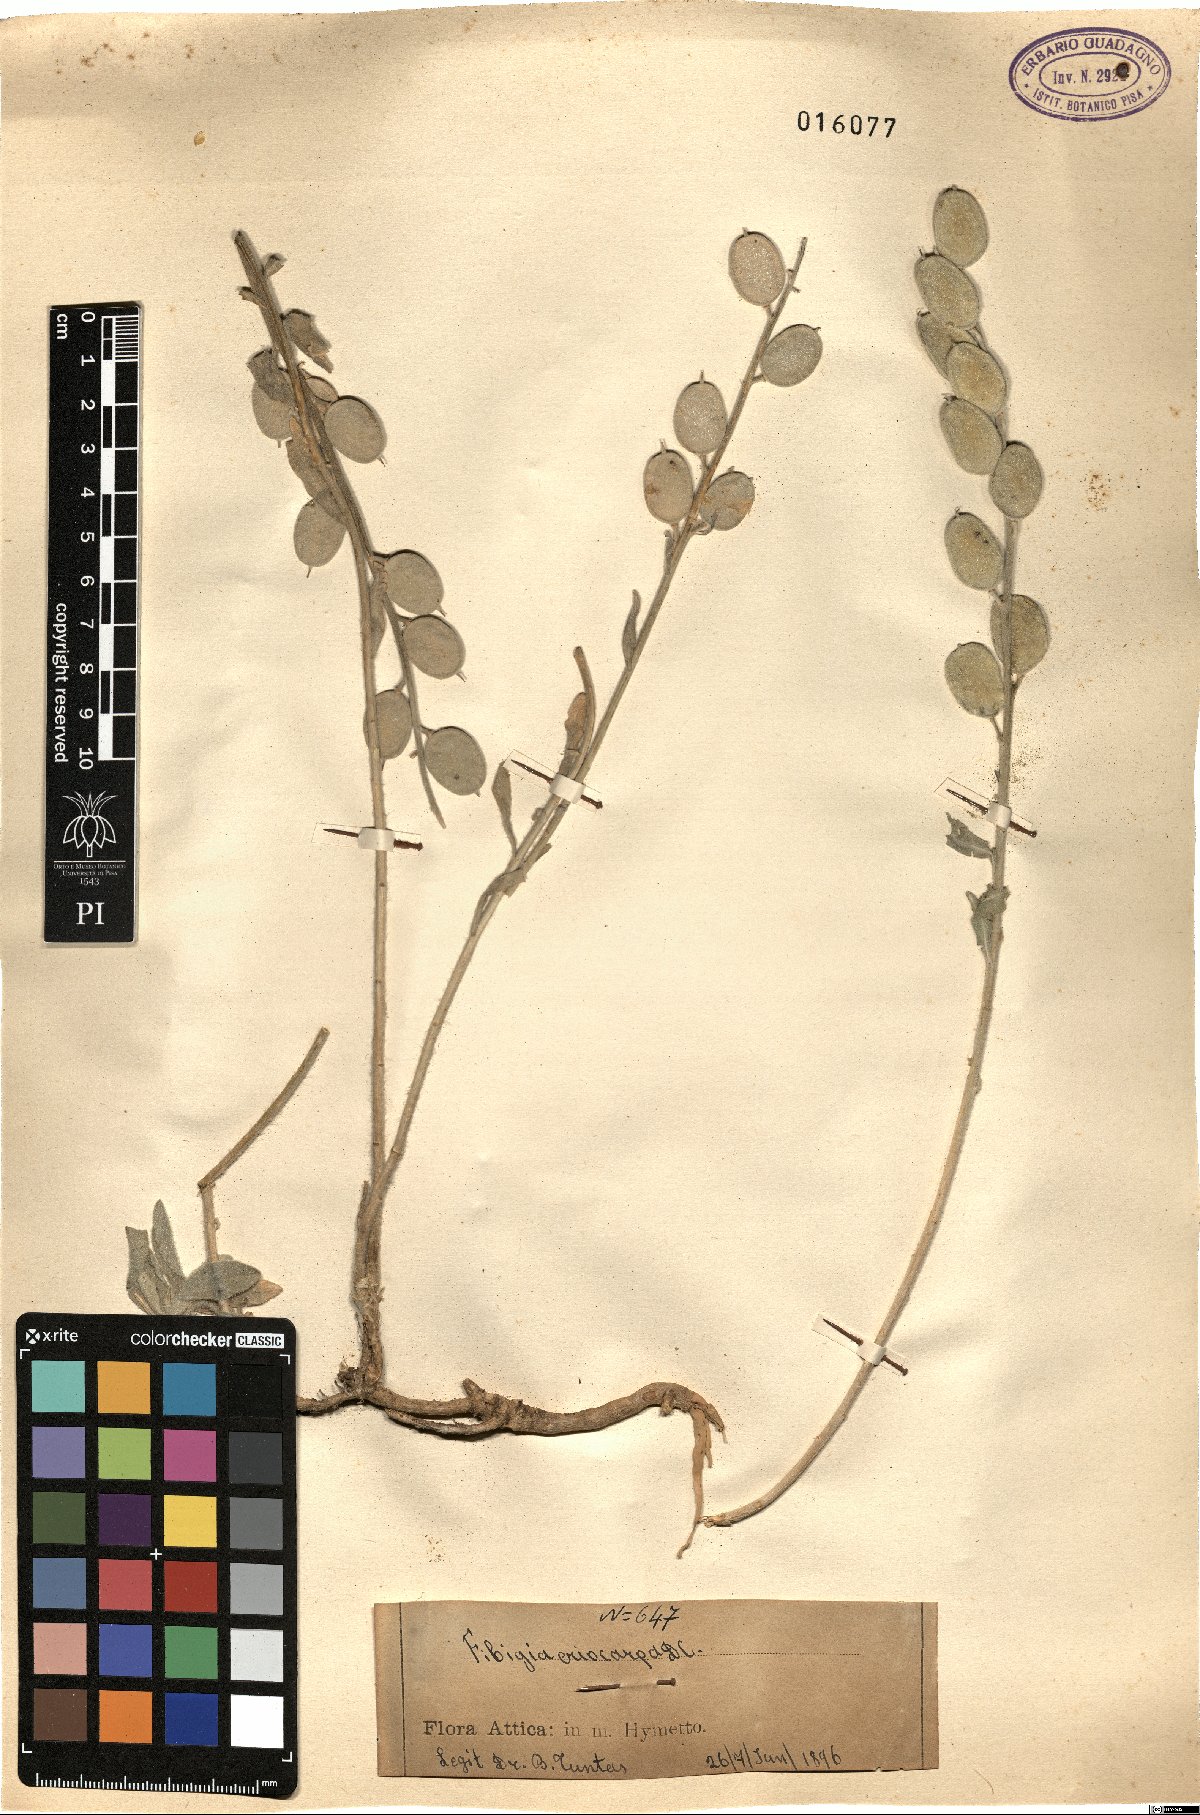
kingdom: Plantae
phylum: Tracheophyta
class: Magnoliopsida
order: Brassicales
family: Brassicaceae
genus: Fibigia
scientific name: Fibigia clypeata
